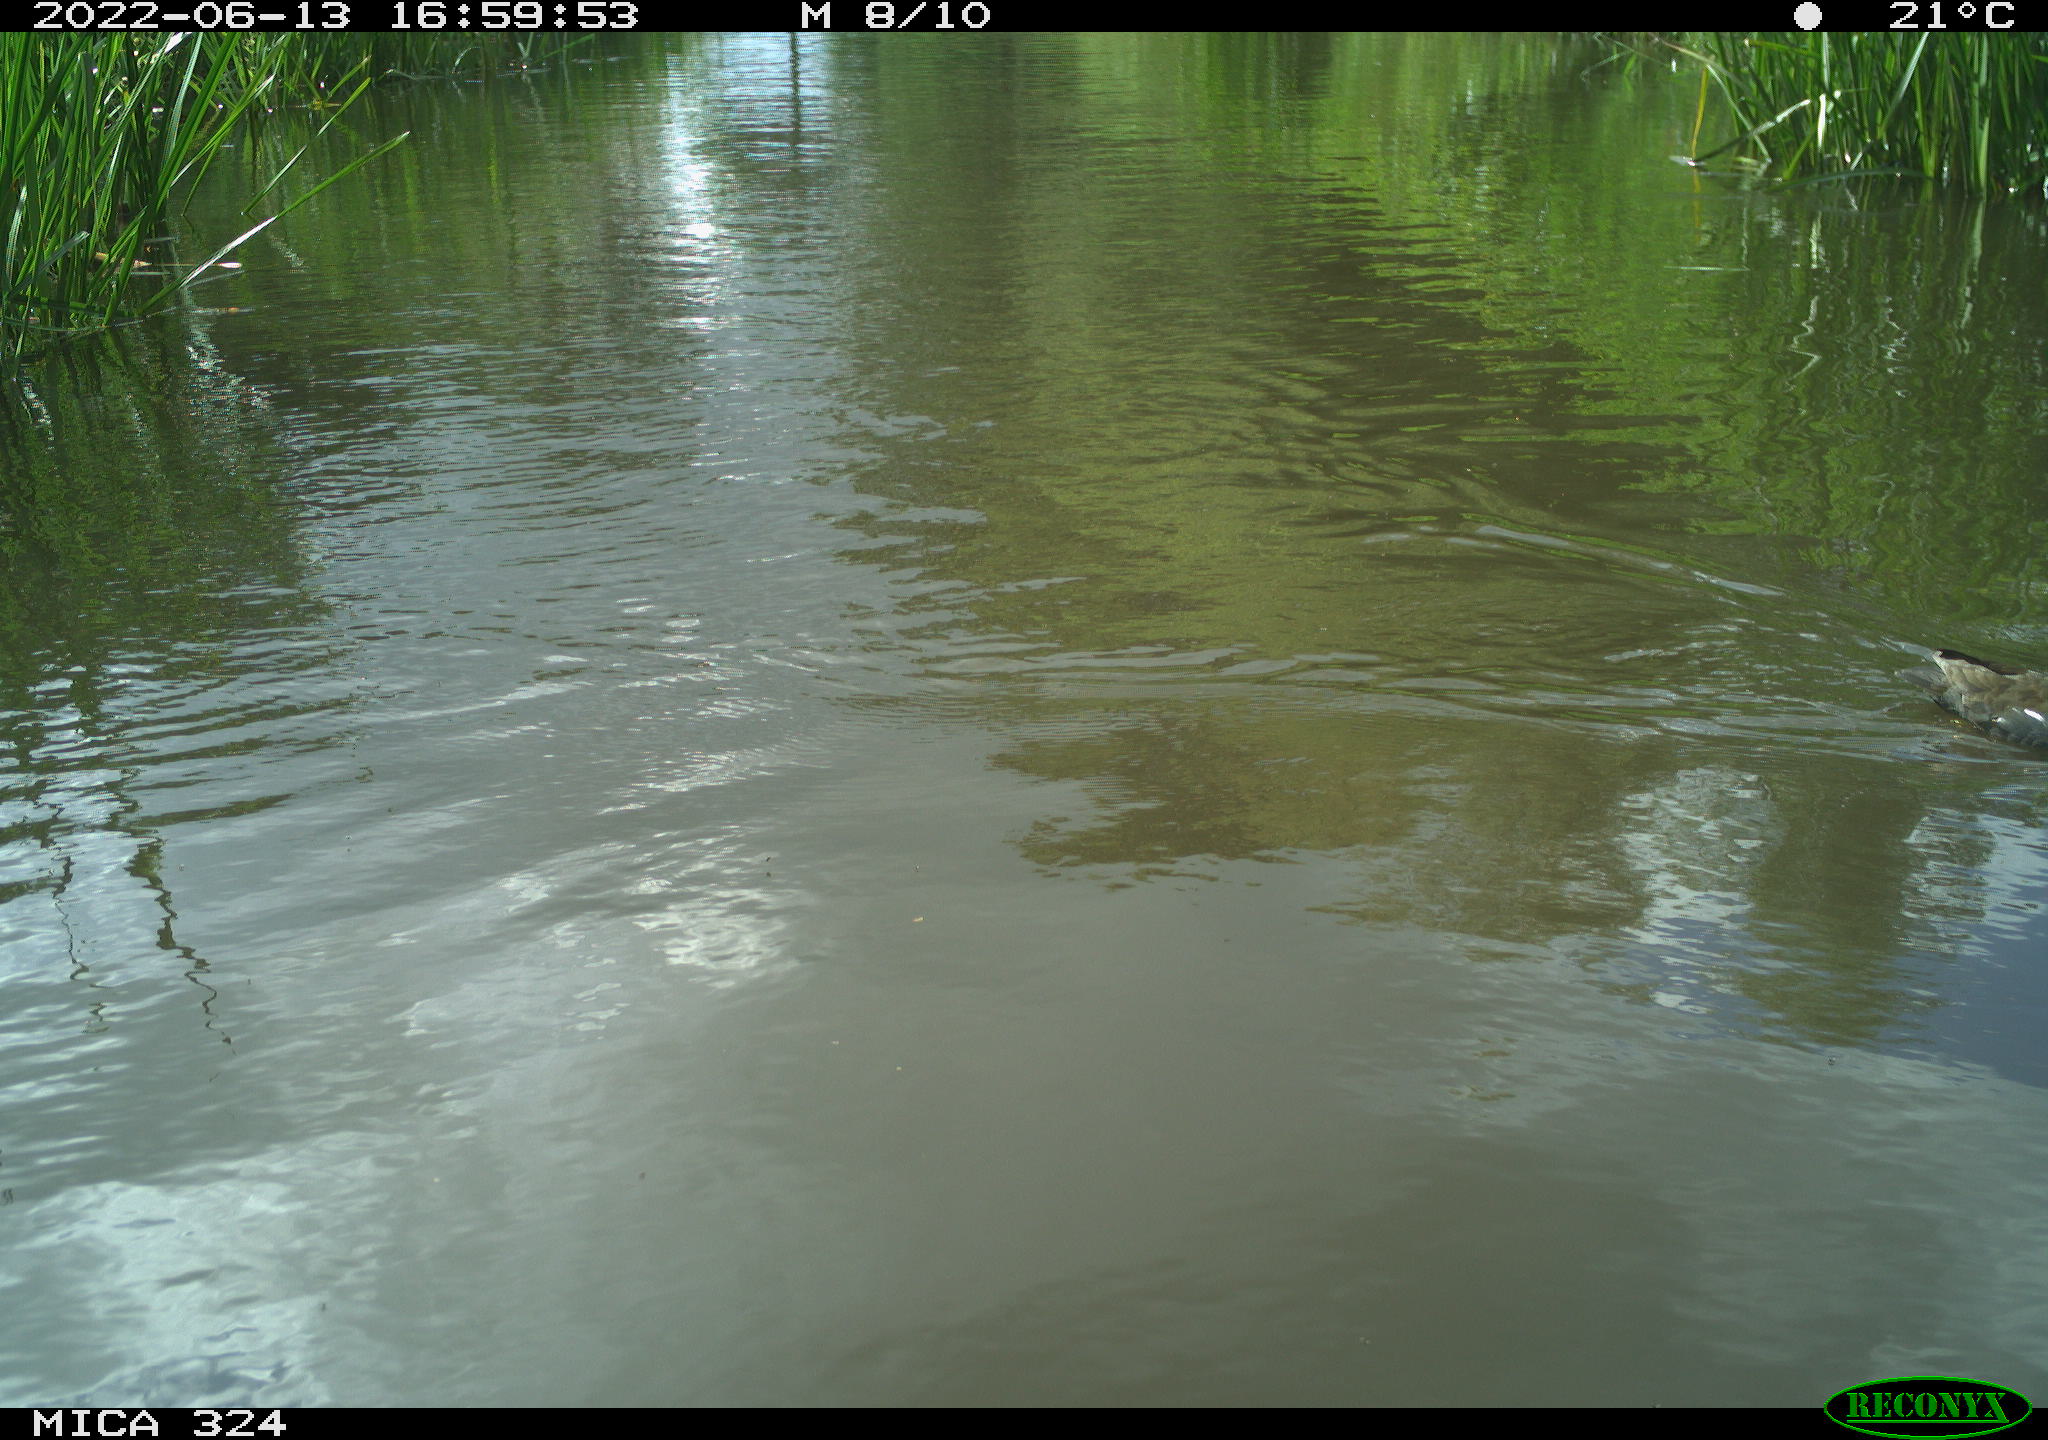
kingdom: Animalia
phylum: Chordata
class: Aves
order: Gruiformes
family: Rallidae
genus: Gallinula
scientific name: Gallinula chloropus
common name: Common moorhen
